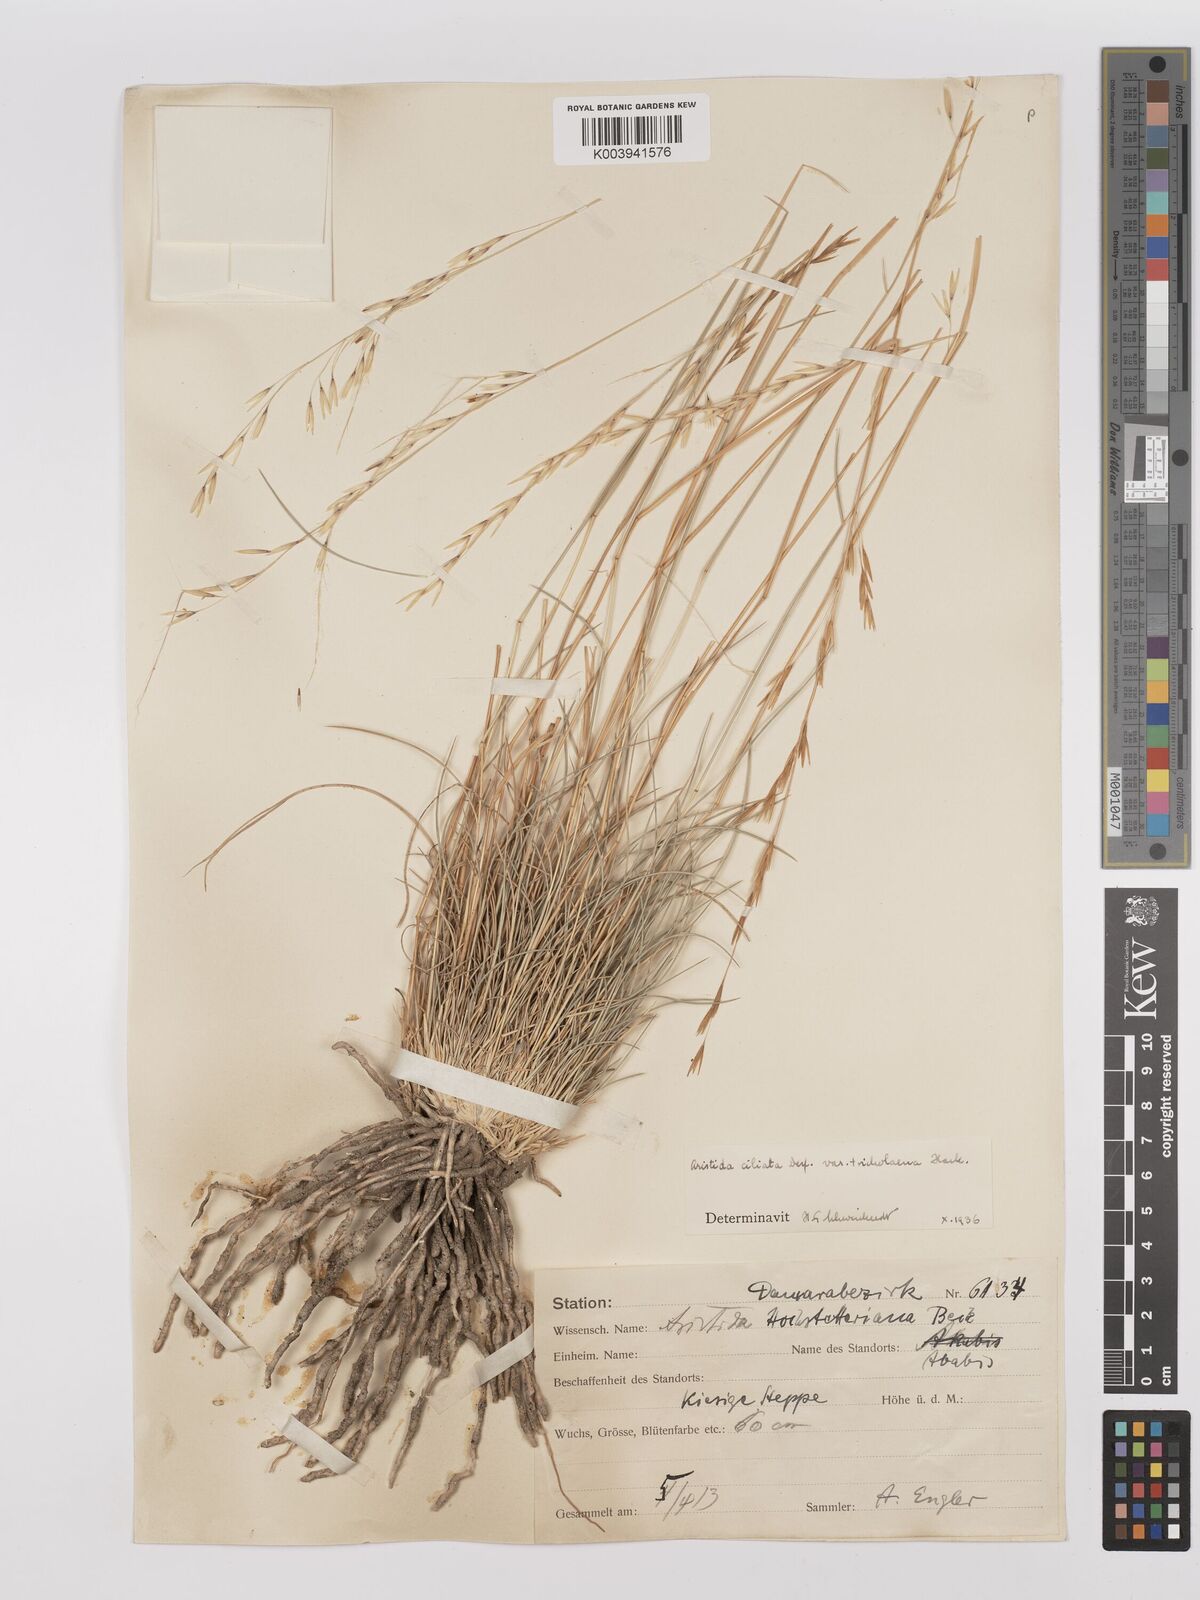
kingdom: Plantae
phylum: Tracheophyta
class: Liliopsida
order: Poales
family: Poaceae
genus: Stipagrostis
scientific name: Stipagrostis ciliata
